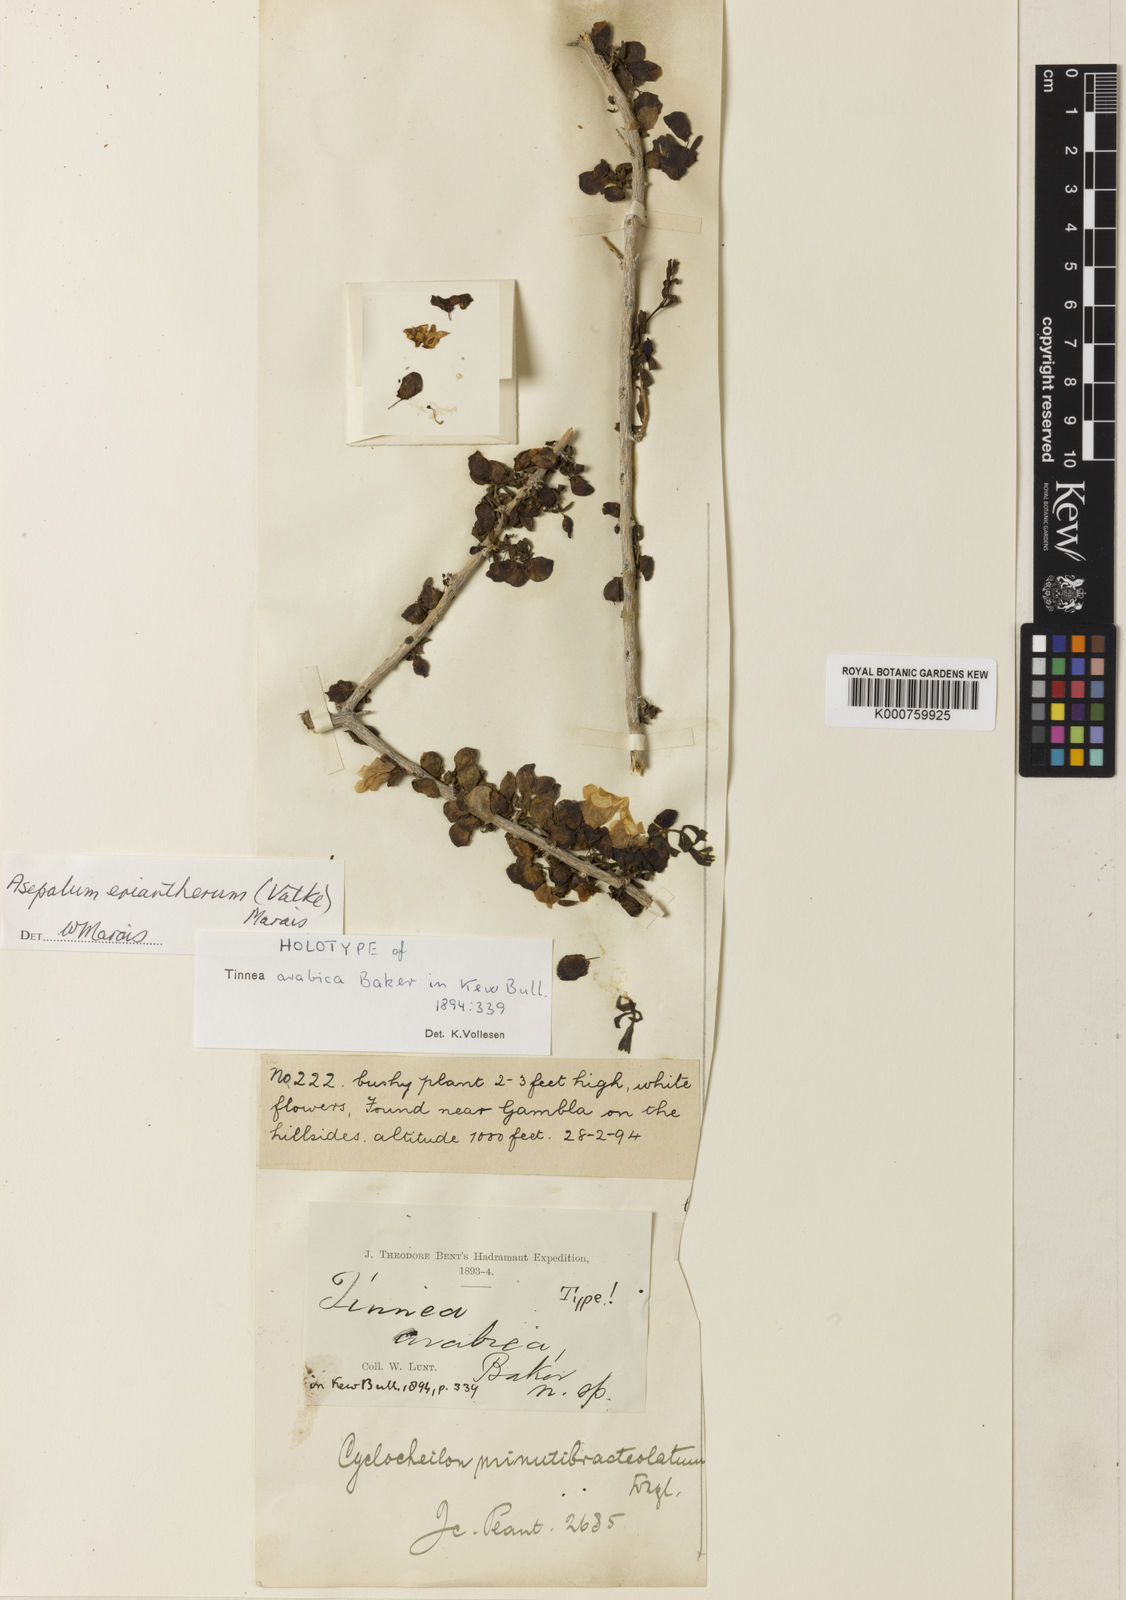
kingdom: Plantae
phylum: Tracheophyta
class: Magnoliopsida
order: Lamiales
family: Orobanchaceae
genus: Asepalum
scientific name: Asepalum eriantherum
